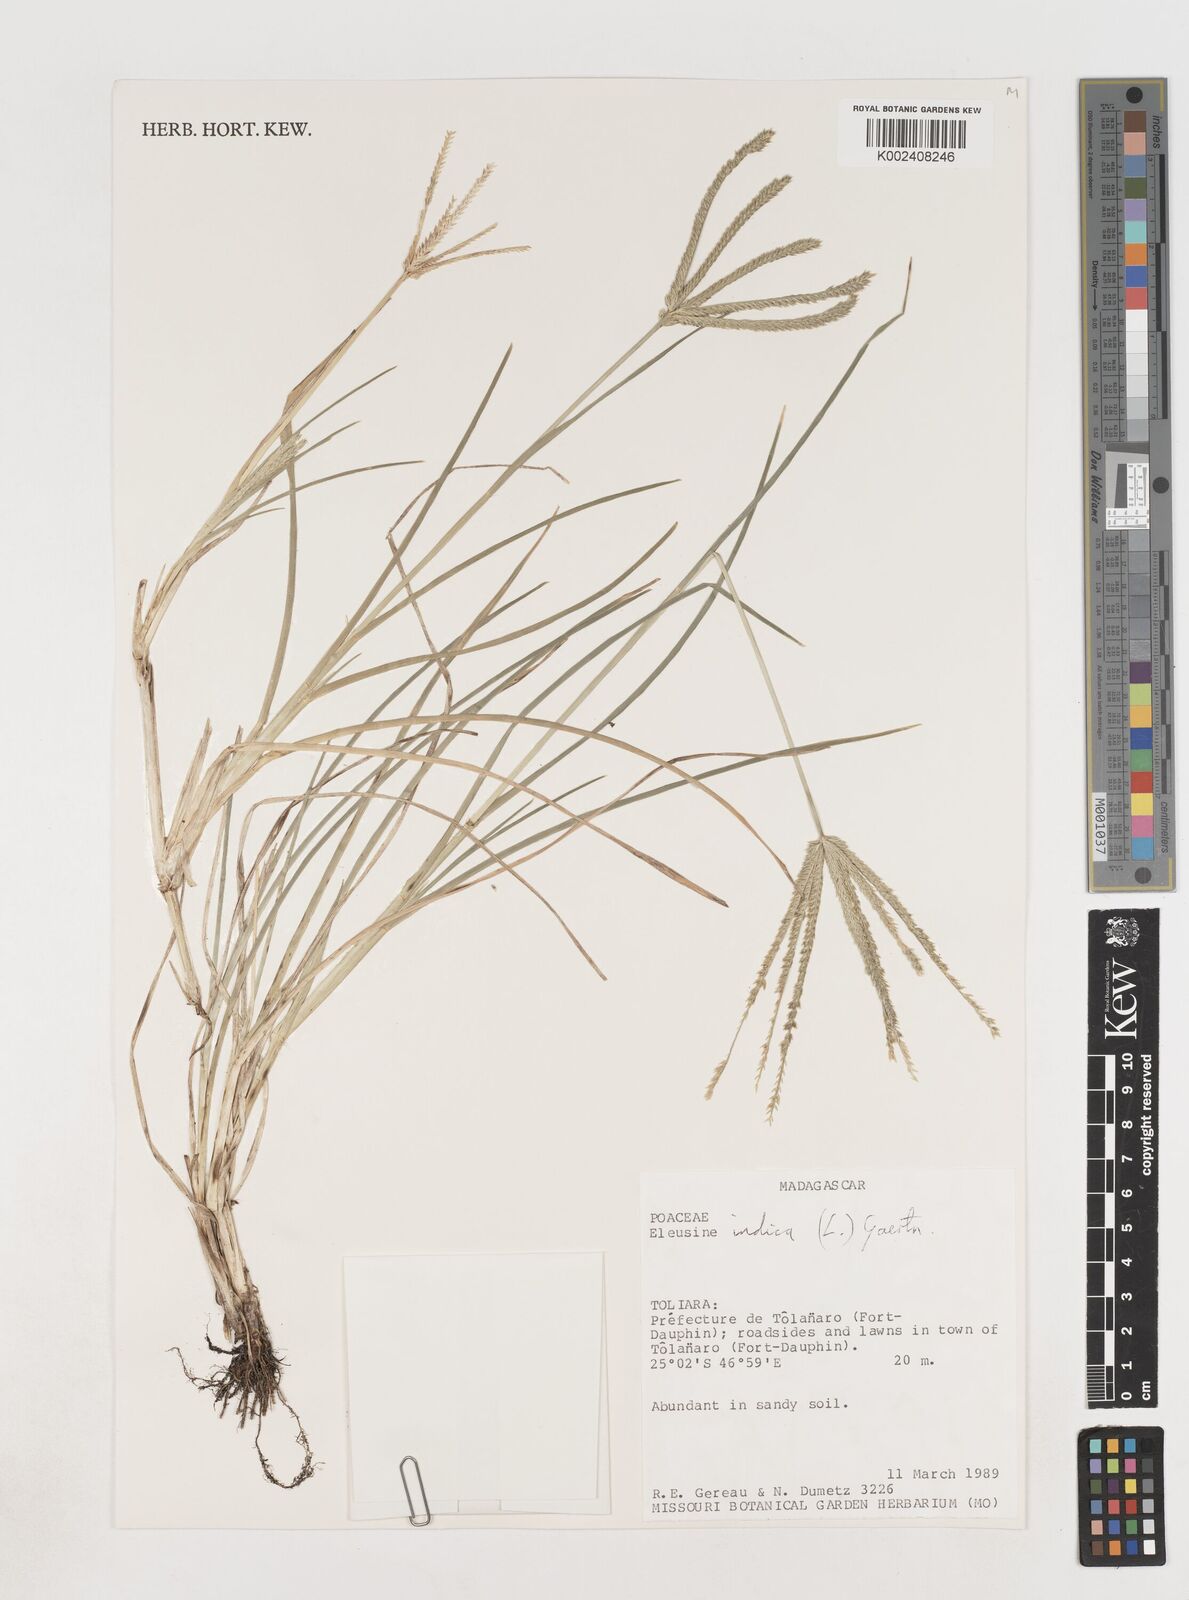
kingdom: Plantae
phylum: Tracheophyta
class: Liliopsida
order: Poales
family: Poaceae
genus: Eleusine
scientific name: Eleusine indica
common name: Yard-grass
